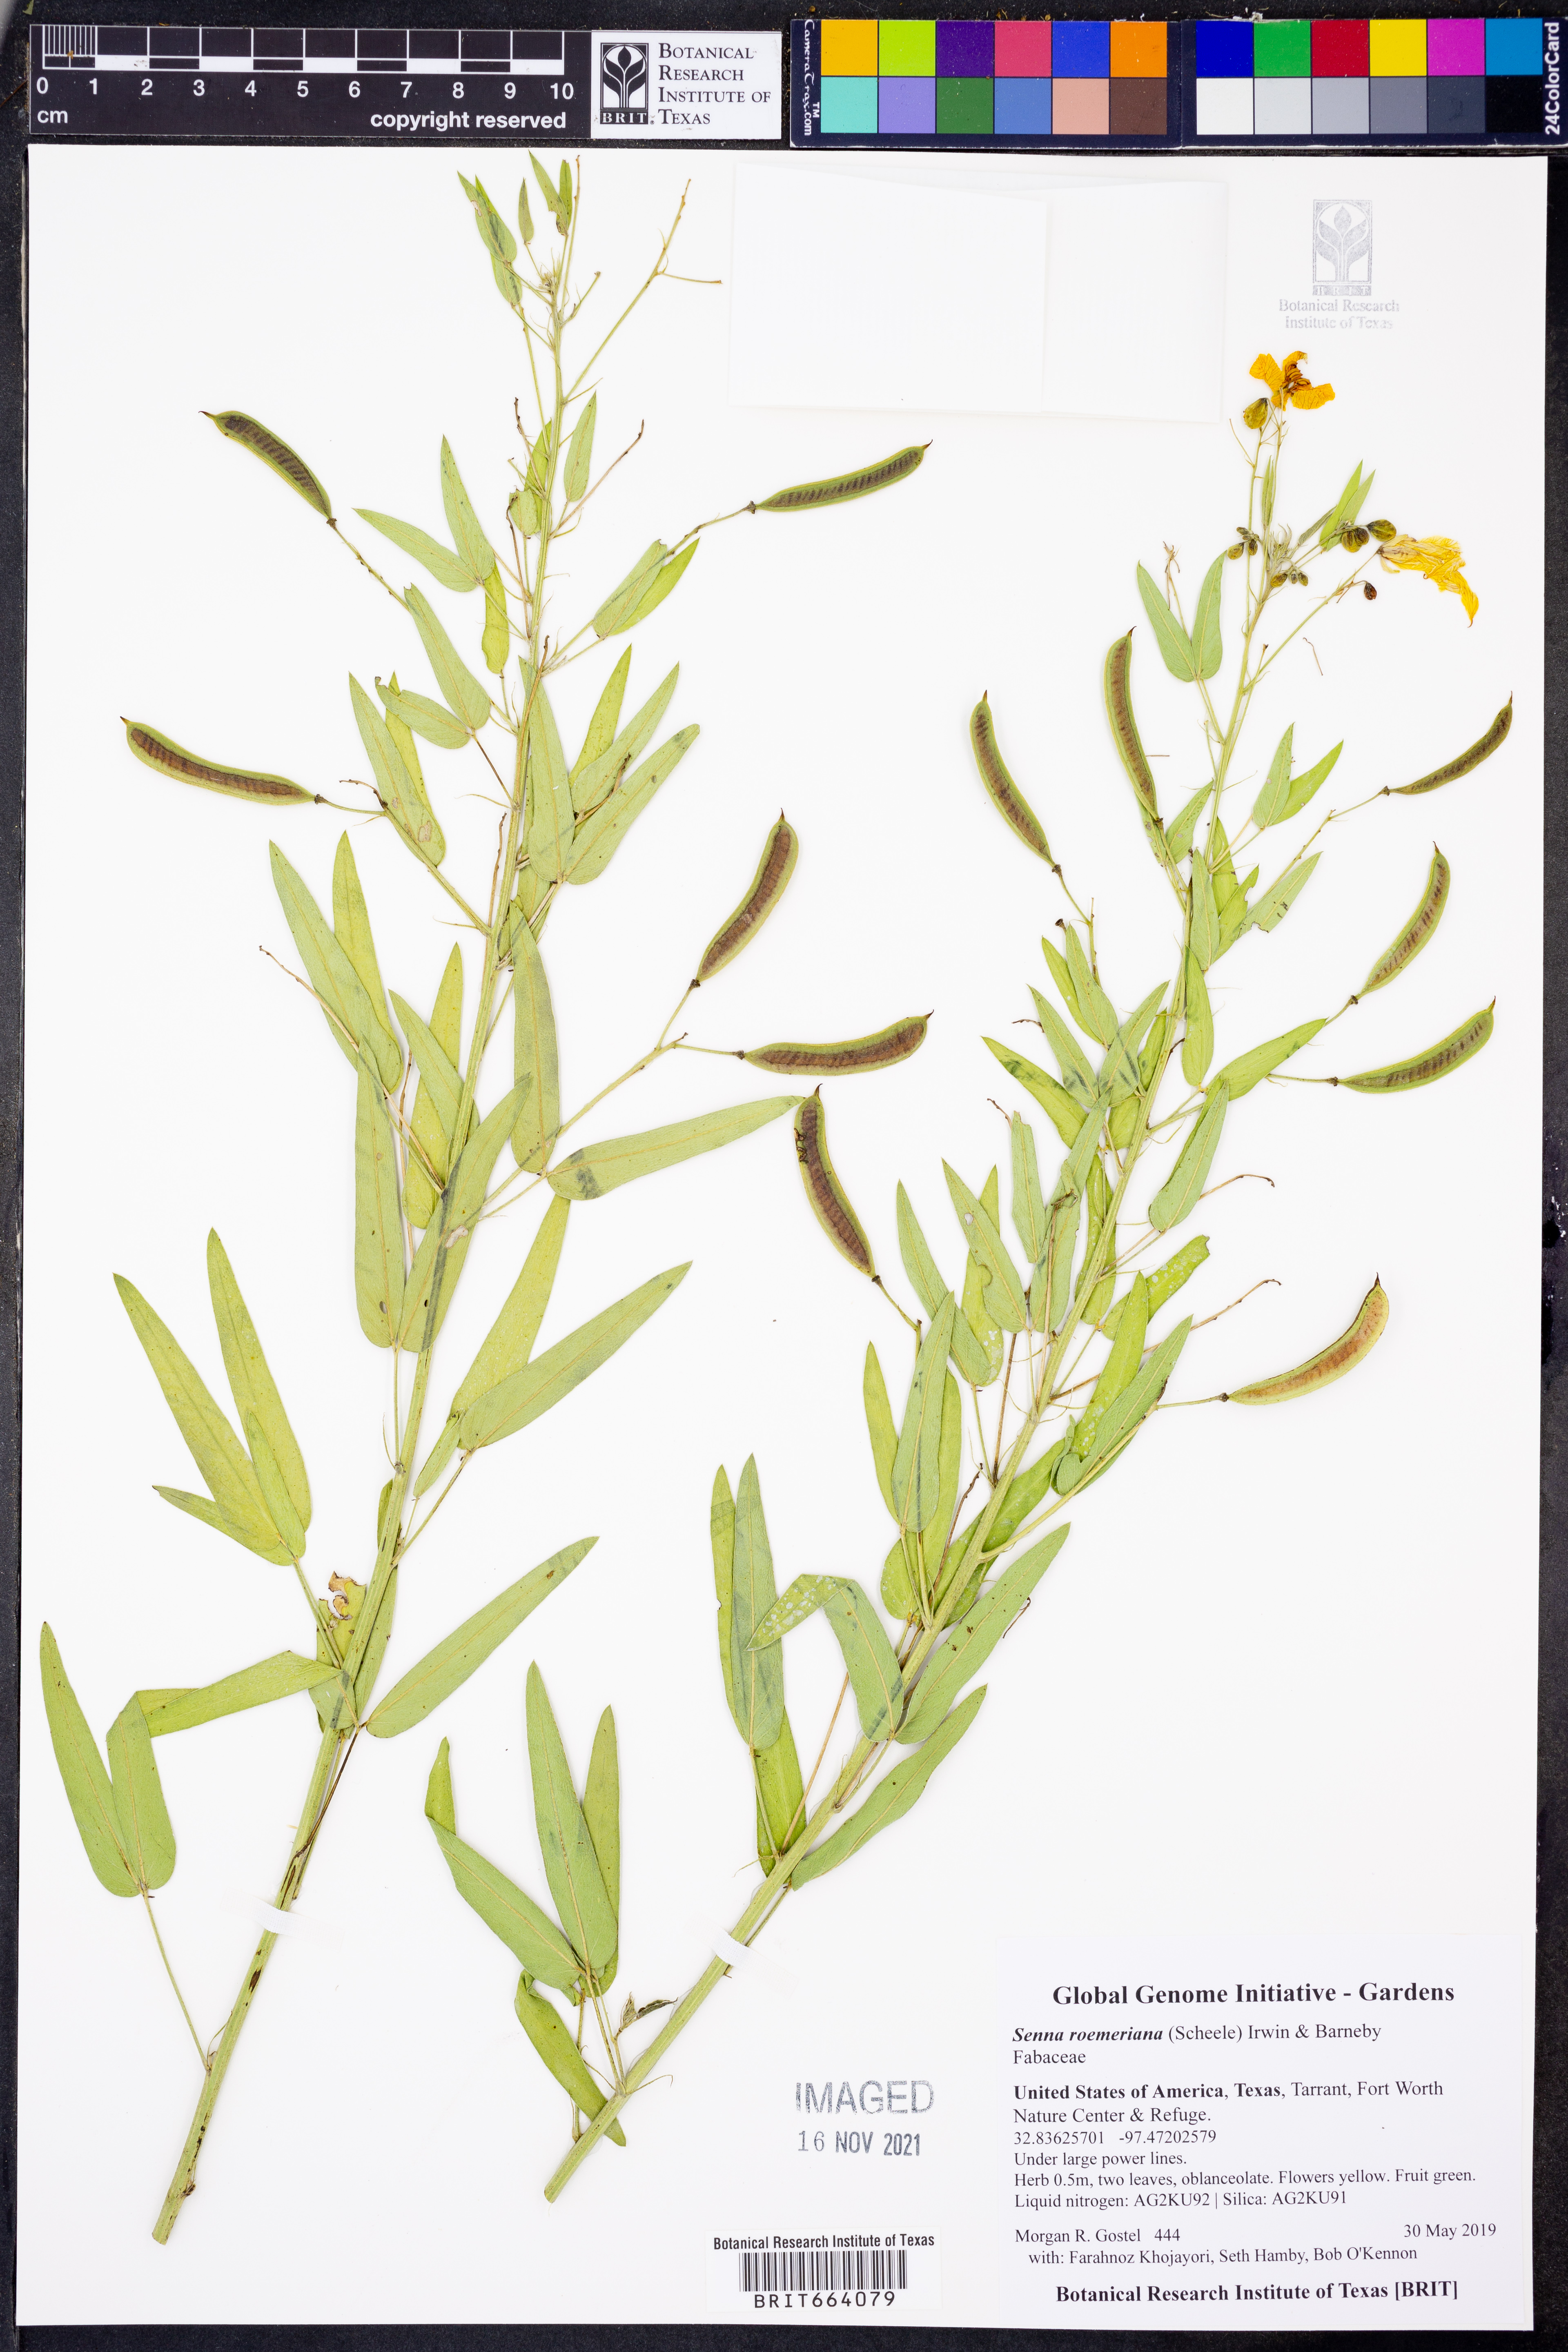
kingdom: Plantae
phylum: Tracheophyta
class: Magnoliopsida
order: Fabales
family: Fabaceae
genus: Senna
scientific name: Senna roemeriana
